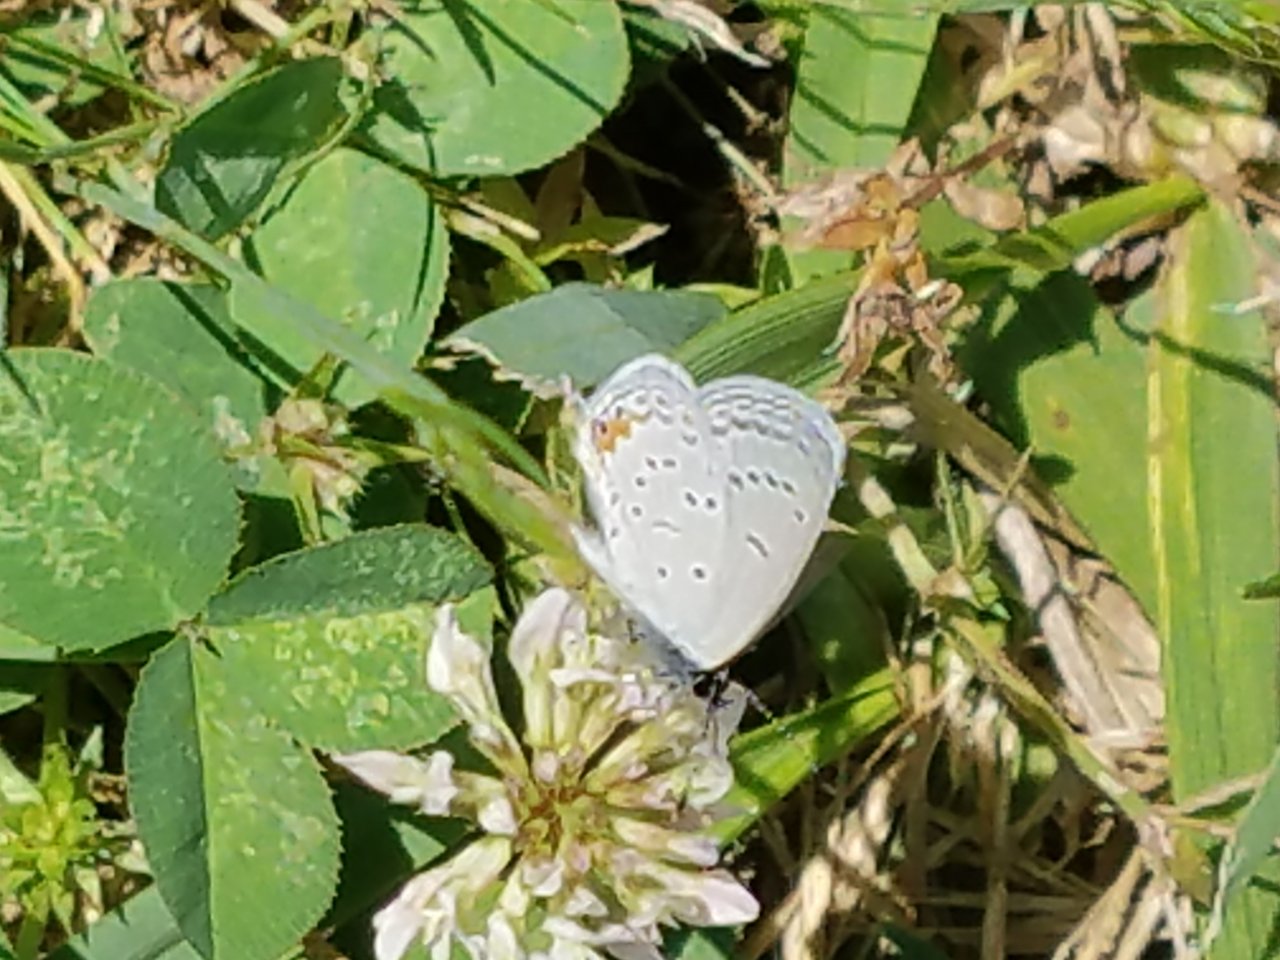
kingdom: Animalia
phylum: Arthropoda
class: Insecta
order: Lepidoptera
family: Lycaenidae
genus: Elkalyce
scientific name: Elkalyce comyntas
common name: Eastern Tailed-Blue
